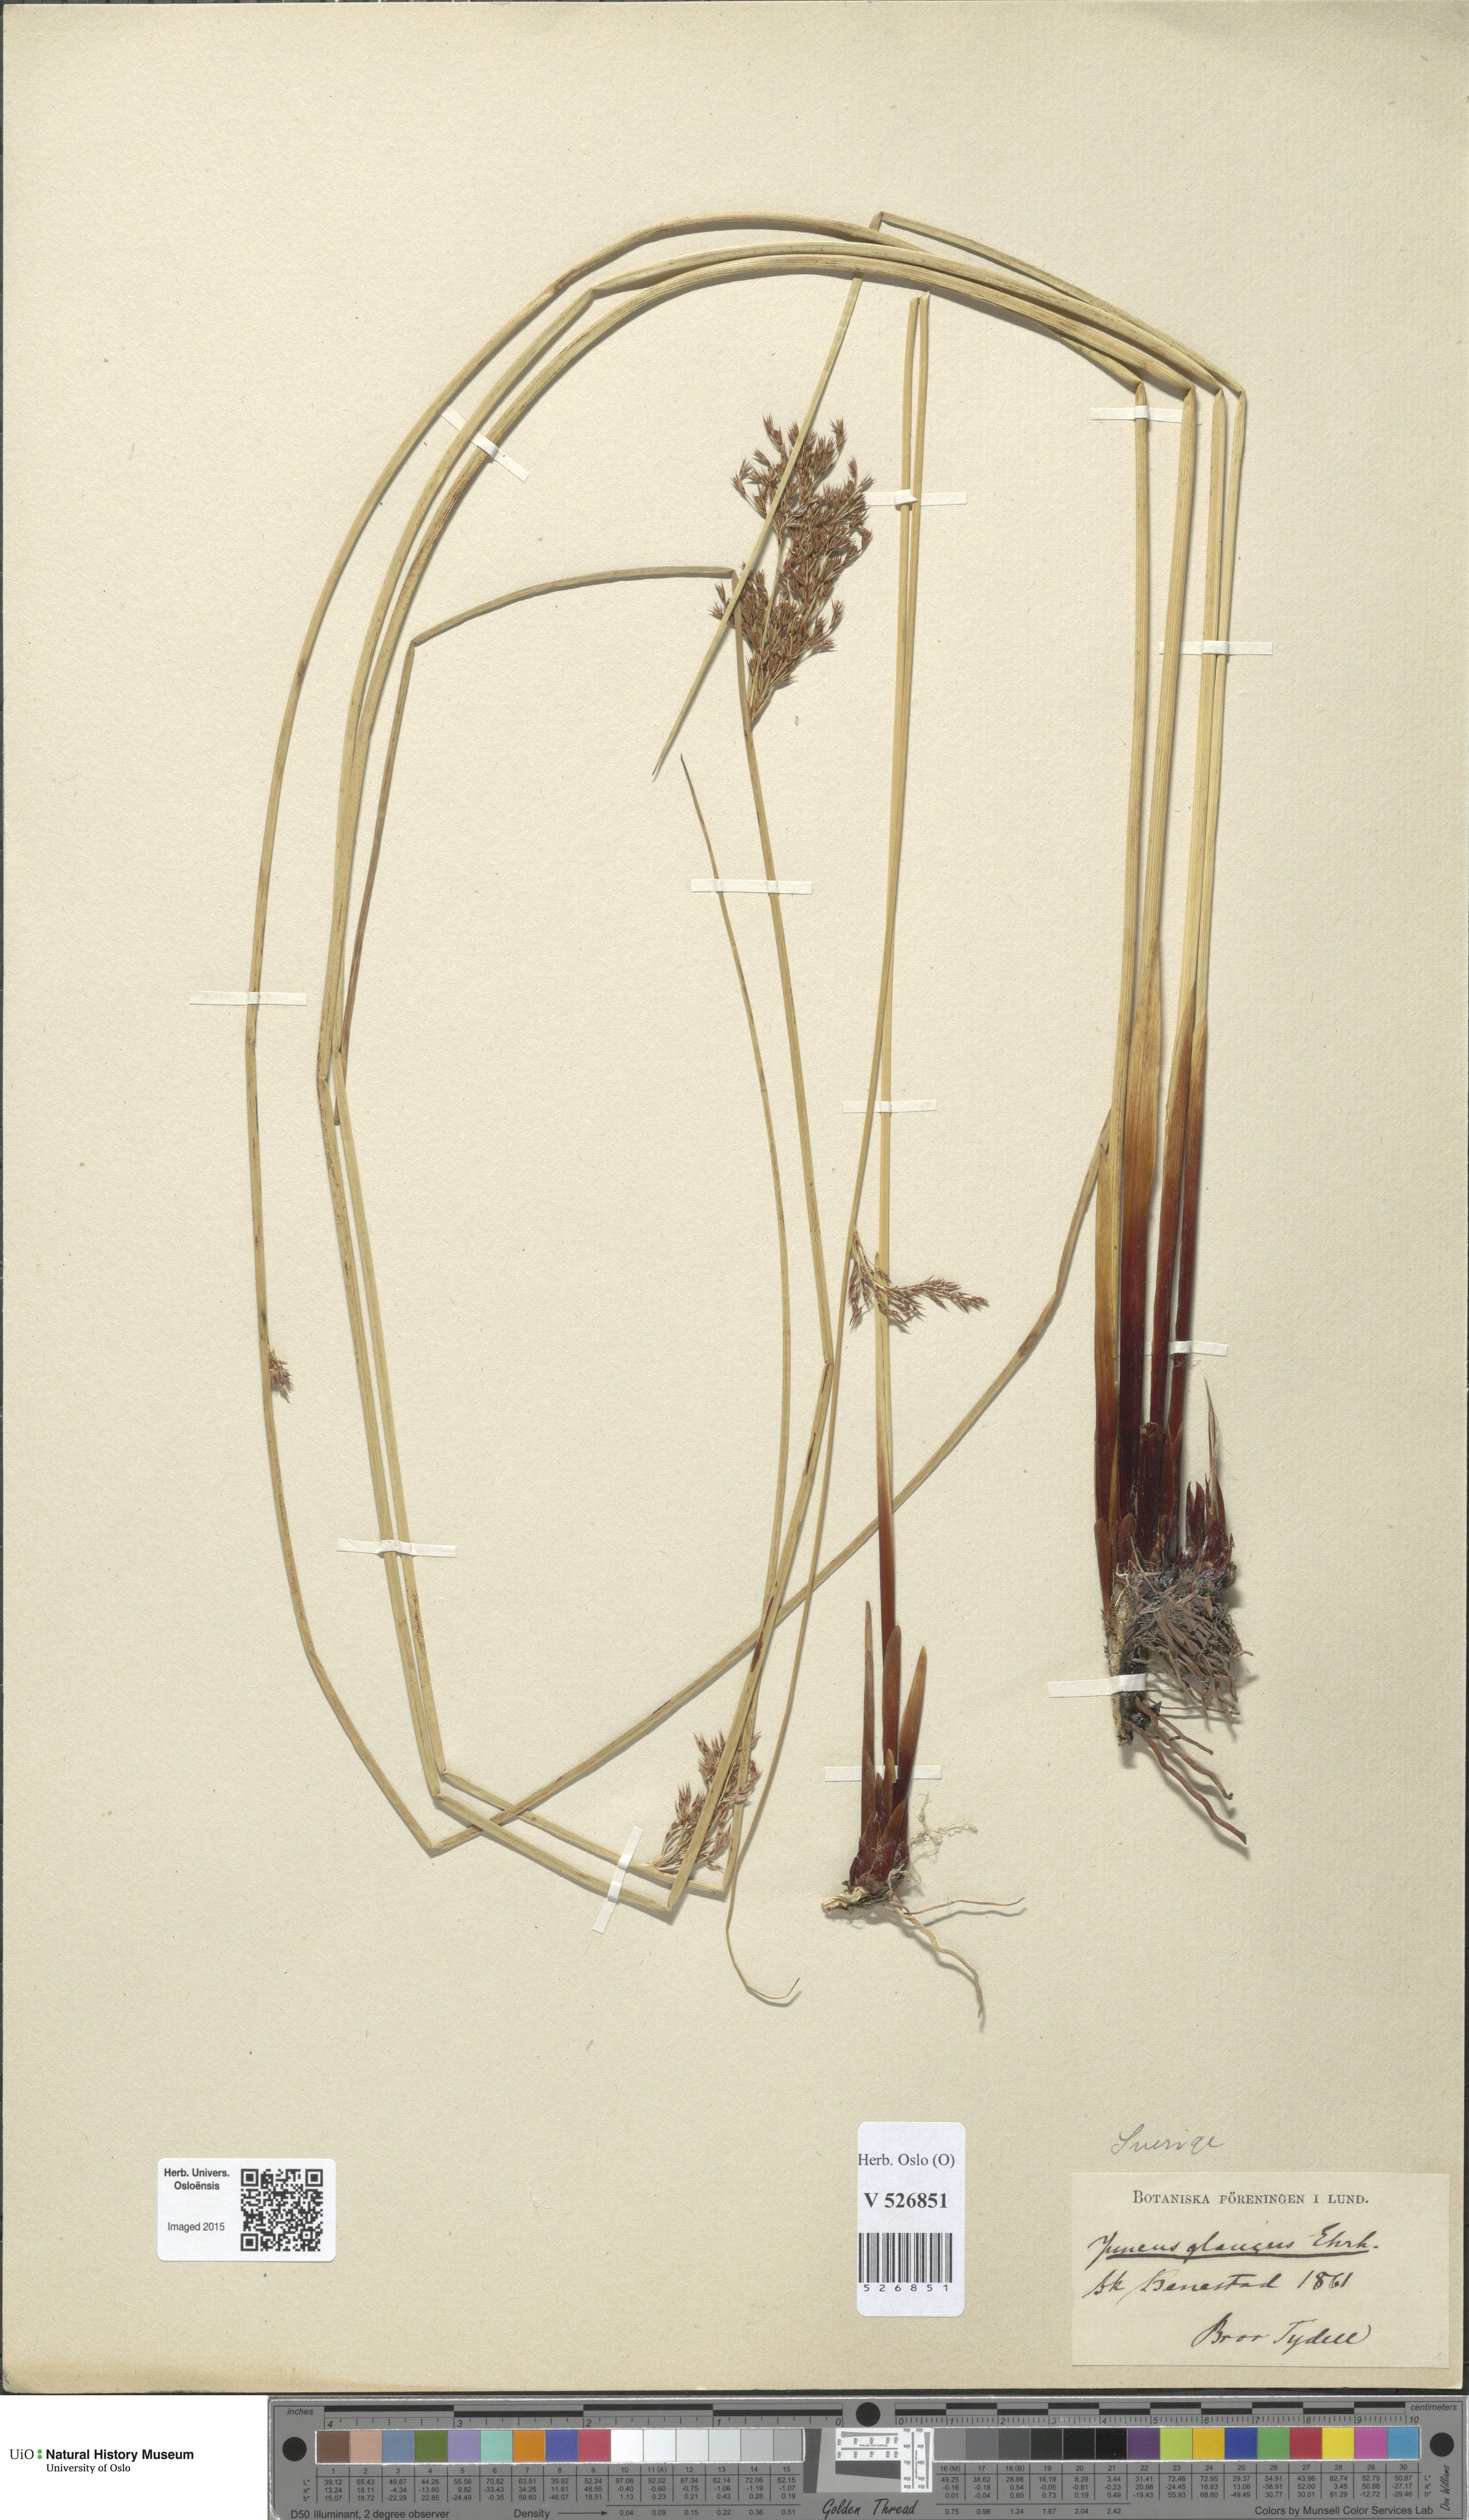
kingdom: Plantae
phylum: Tracheophyta
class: Liliopsida
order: Poales
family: Juncaceae
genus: Juncus
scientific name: Juncus inflexus
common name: Hard rush
